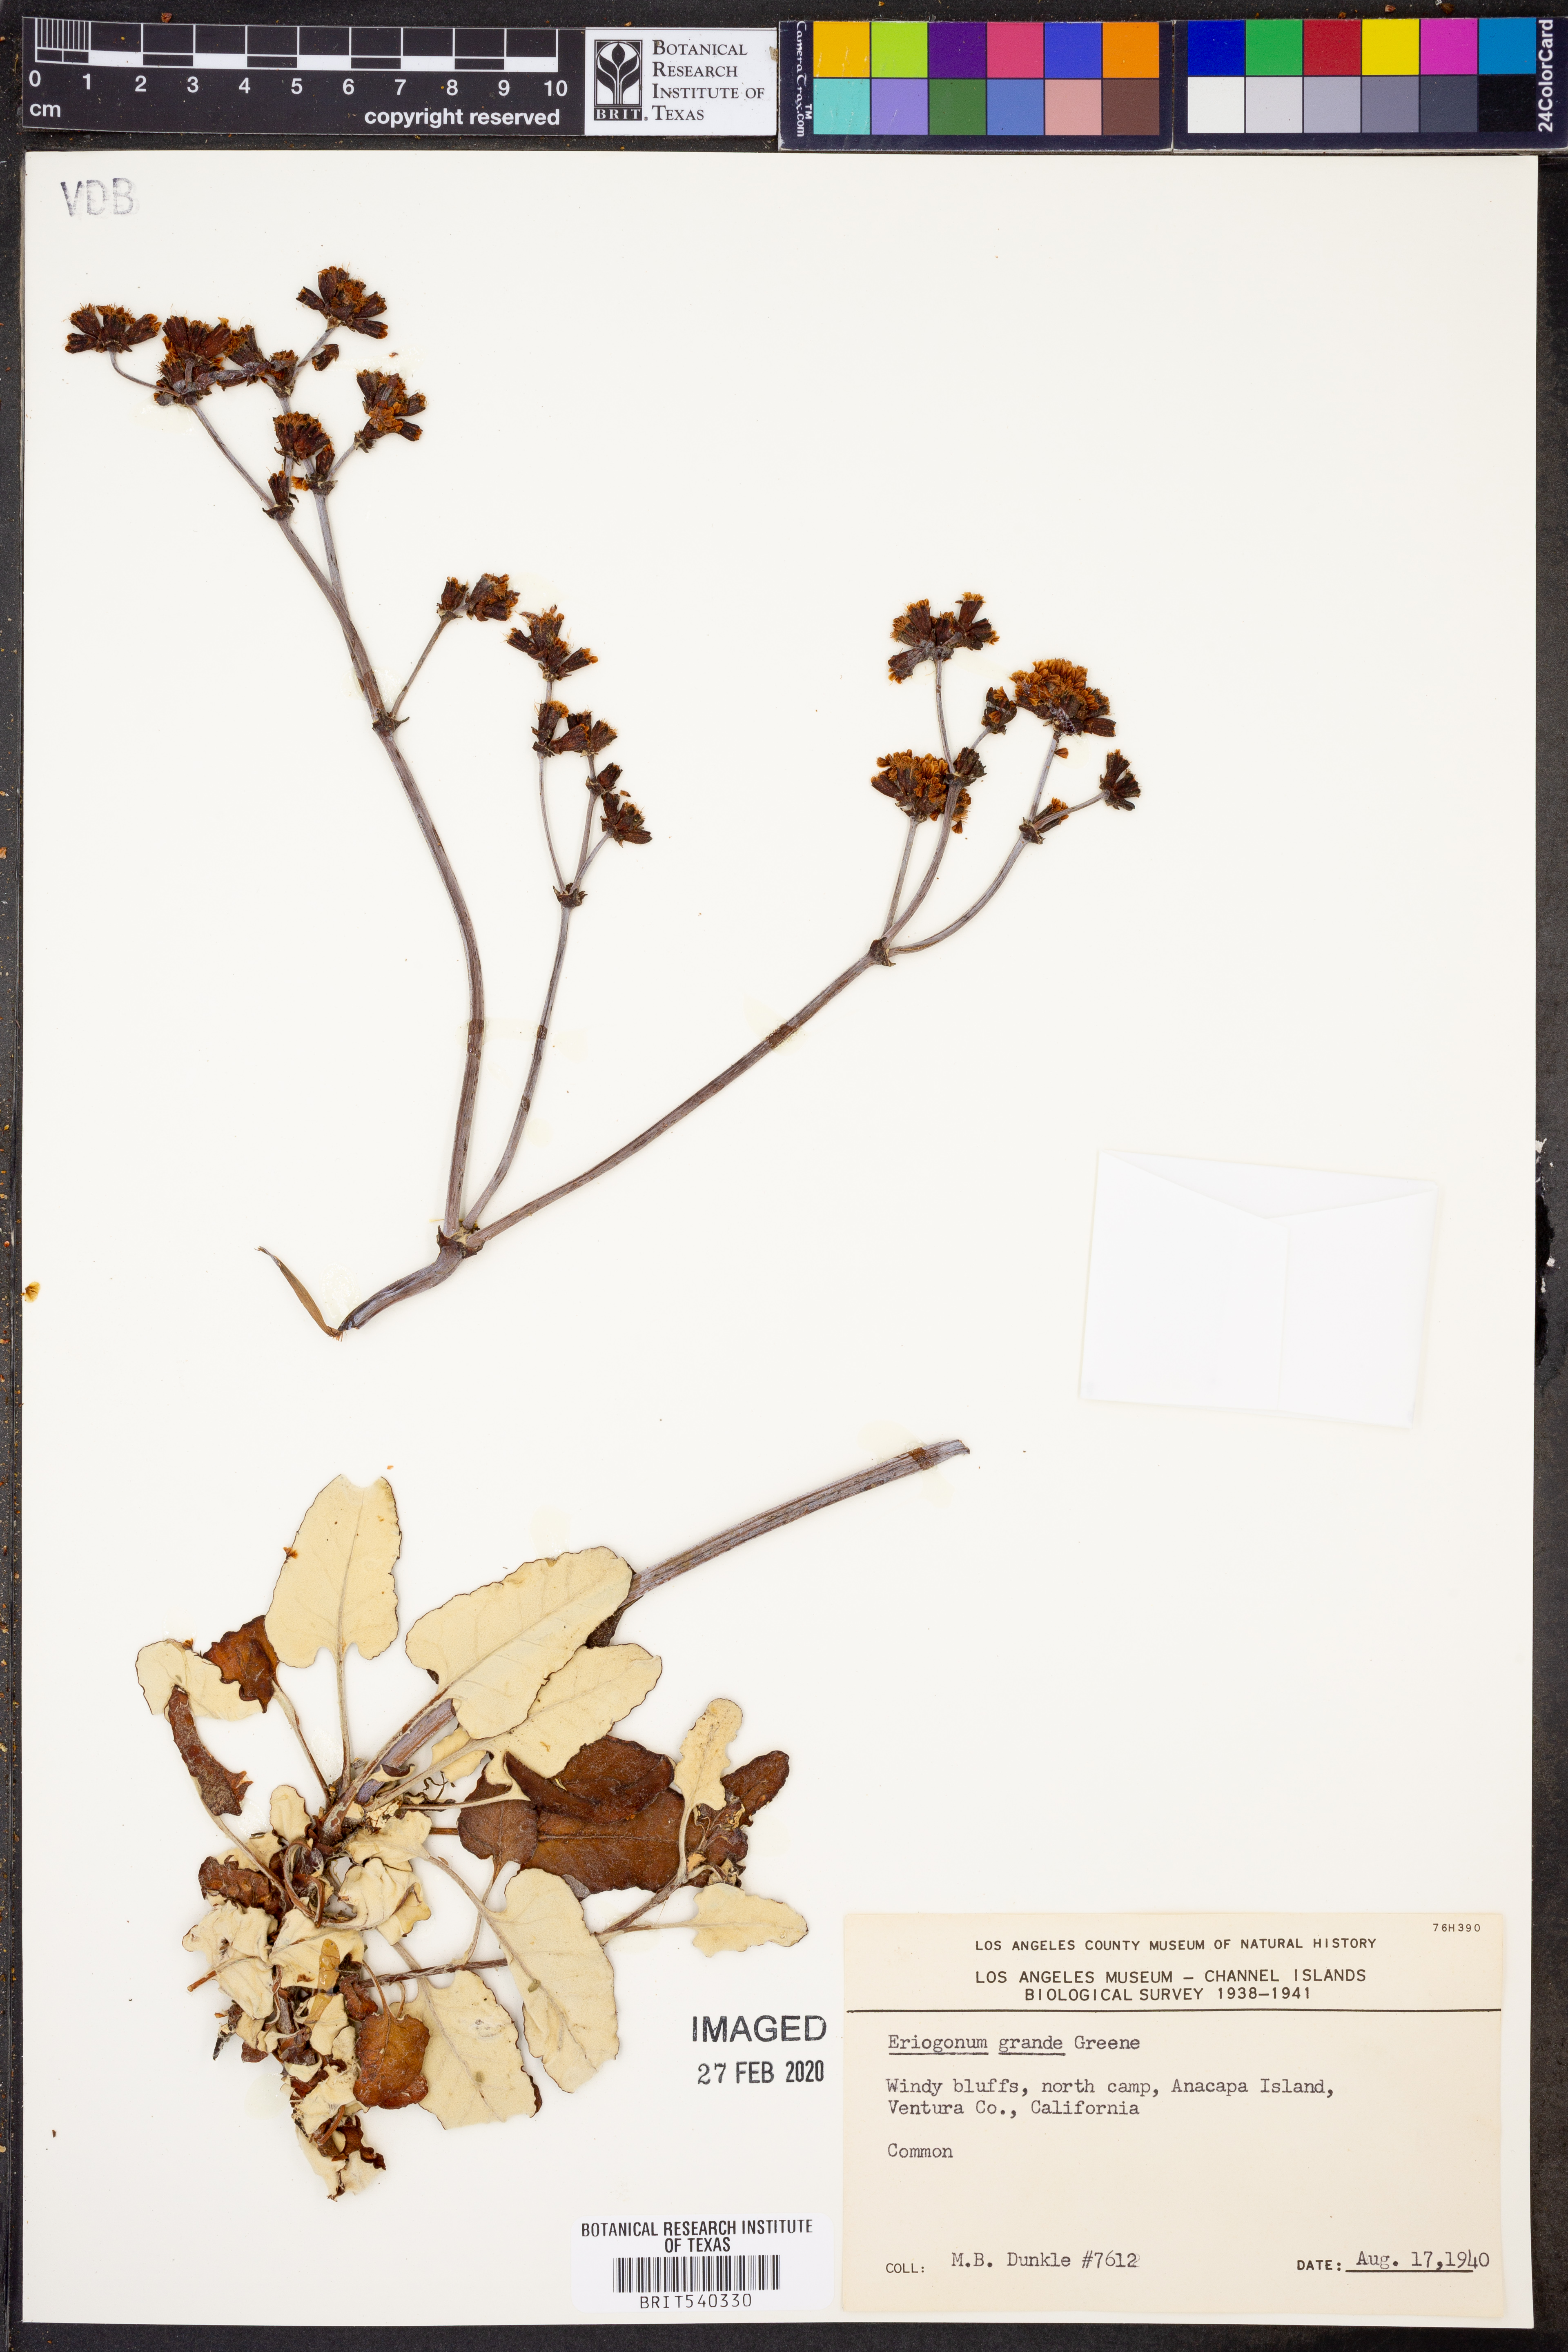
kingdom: Plantae
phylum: Tracheophyta
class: Magnoliopsida
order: Caryophyllales
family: Polygonaceae
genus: Eriogonum
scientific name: Eriogonum grande
